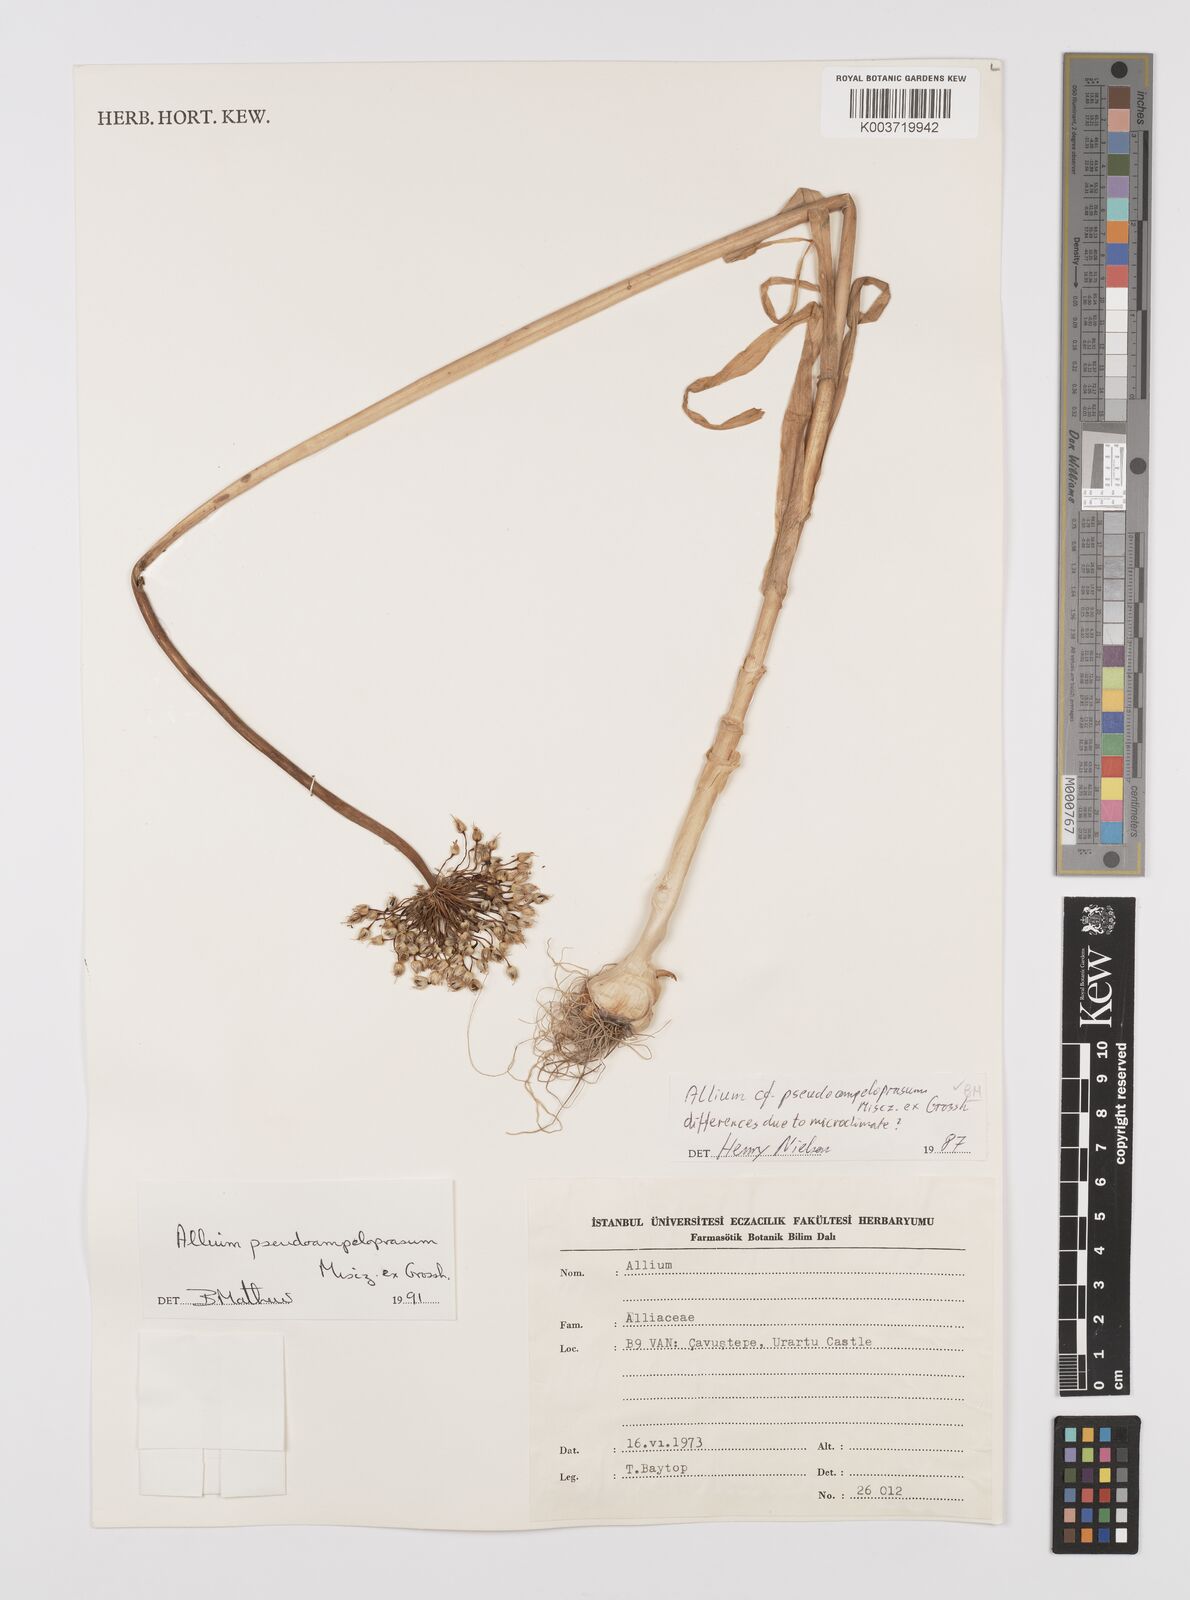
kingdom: Plantae
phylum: Tracheophyta
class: Liliopsida
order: Asparagales
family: Amaryllidaceae
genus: Allium
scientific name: Allium pseudoampeloprasum
